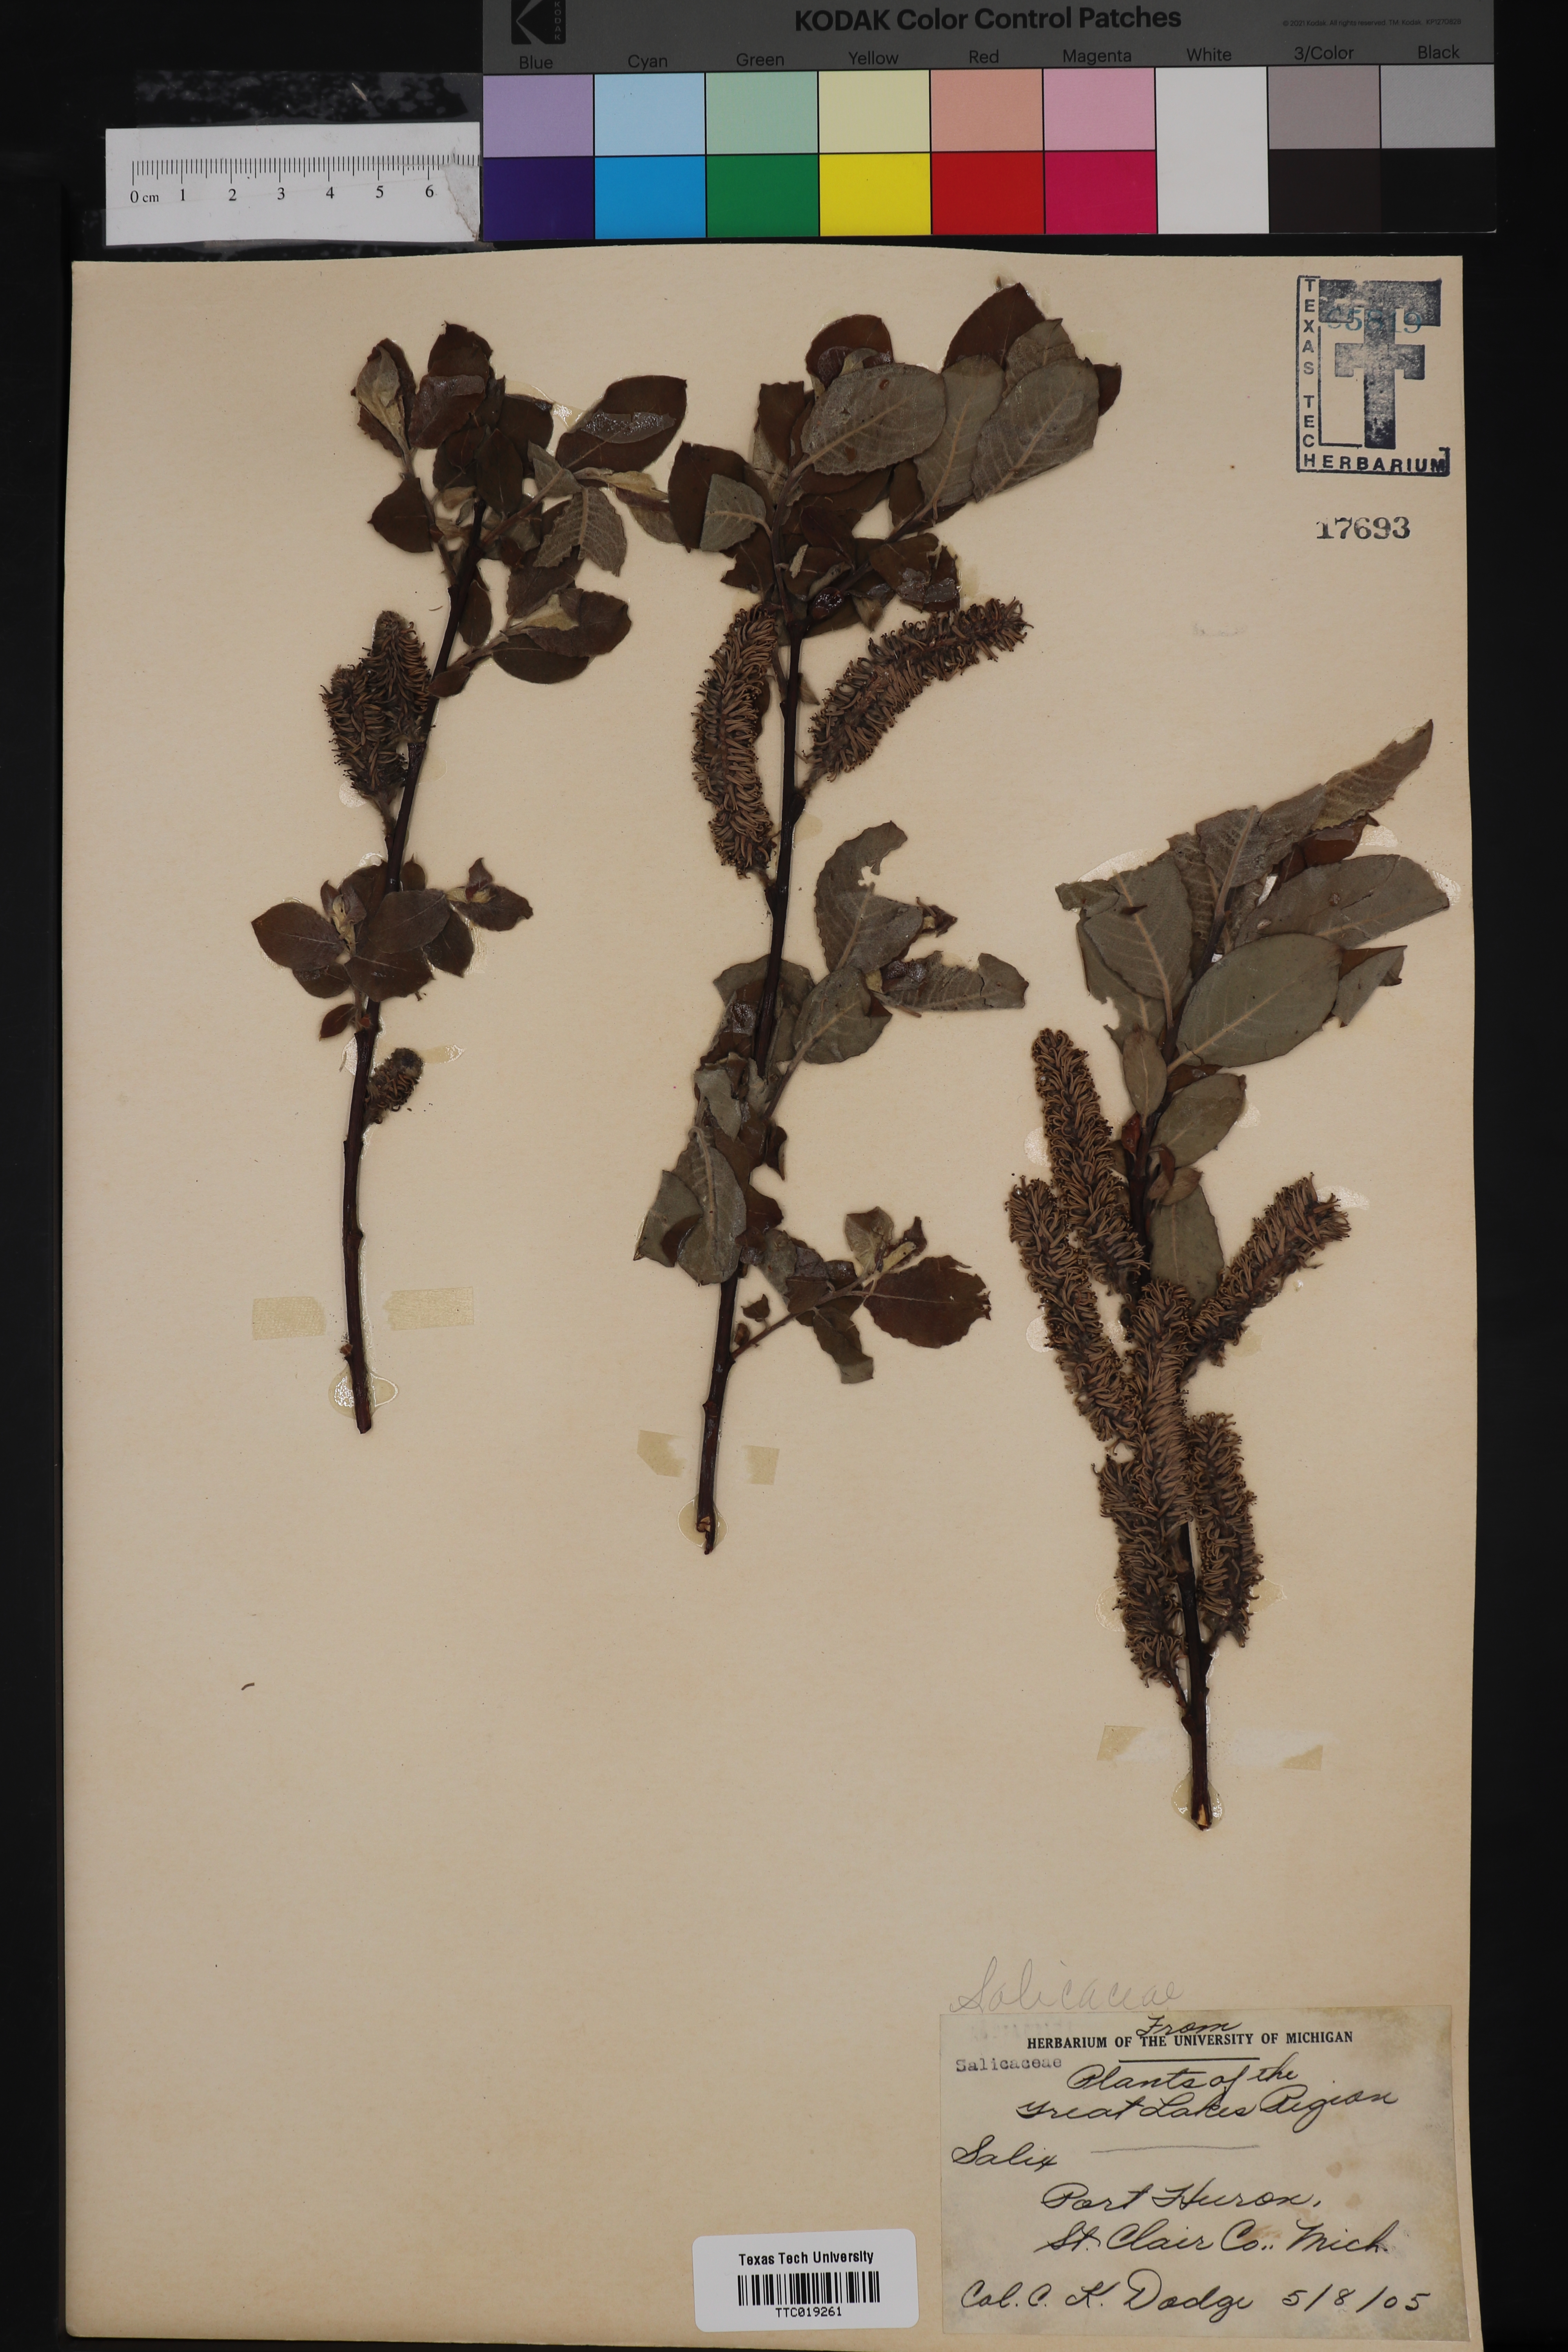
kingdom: Plantae
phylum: Tracheophyta
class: Magnoliopsida
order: Malpighiales
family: Salicaceae
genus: Salix
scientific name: Salix
